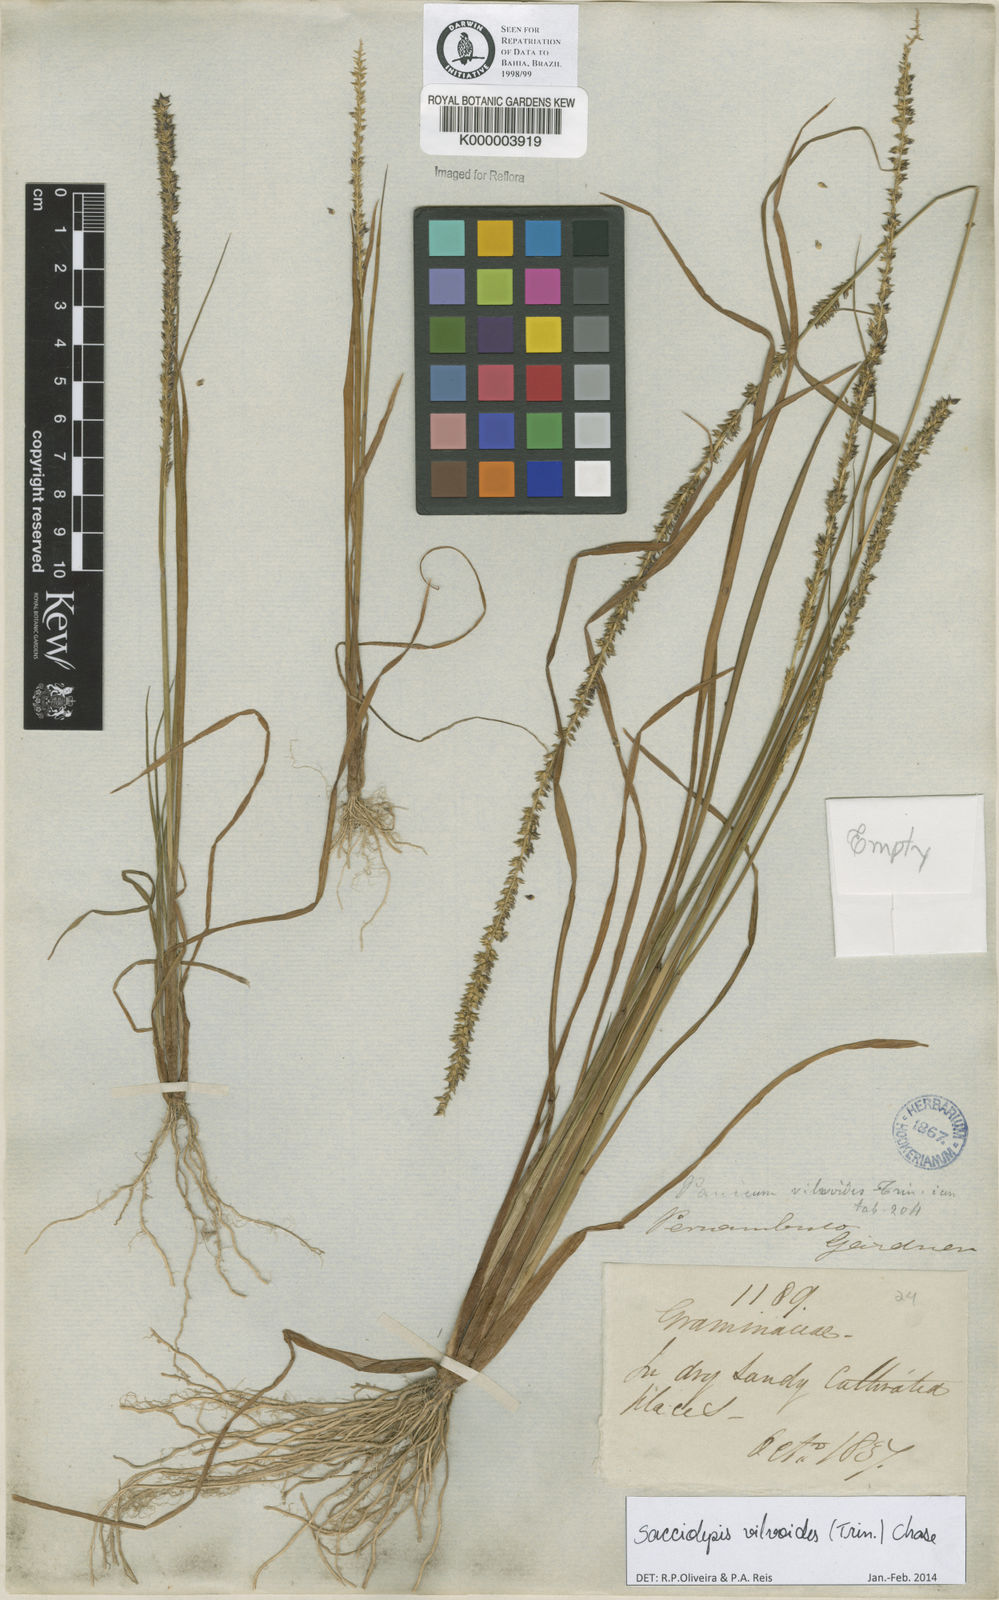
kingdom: Plantae
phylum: Tracheophyta
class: Liliopsida
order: Poales
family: Poaceae
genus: Sacciolepis
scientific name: Sacciolepis vilvoides
